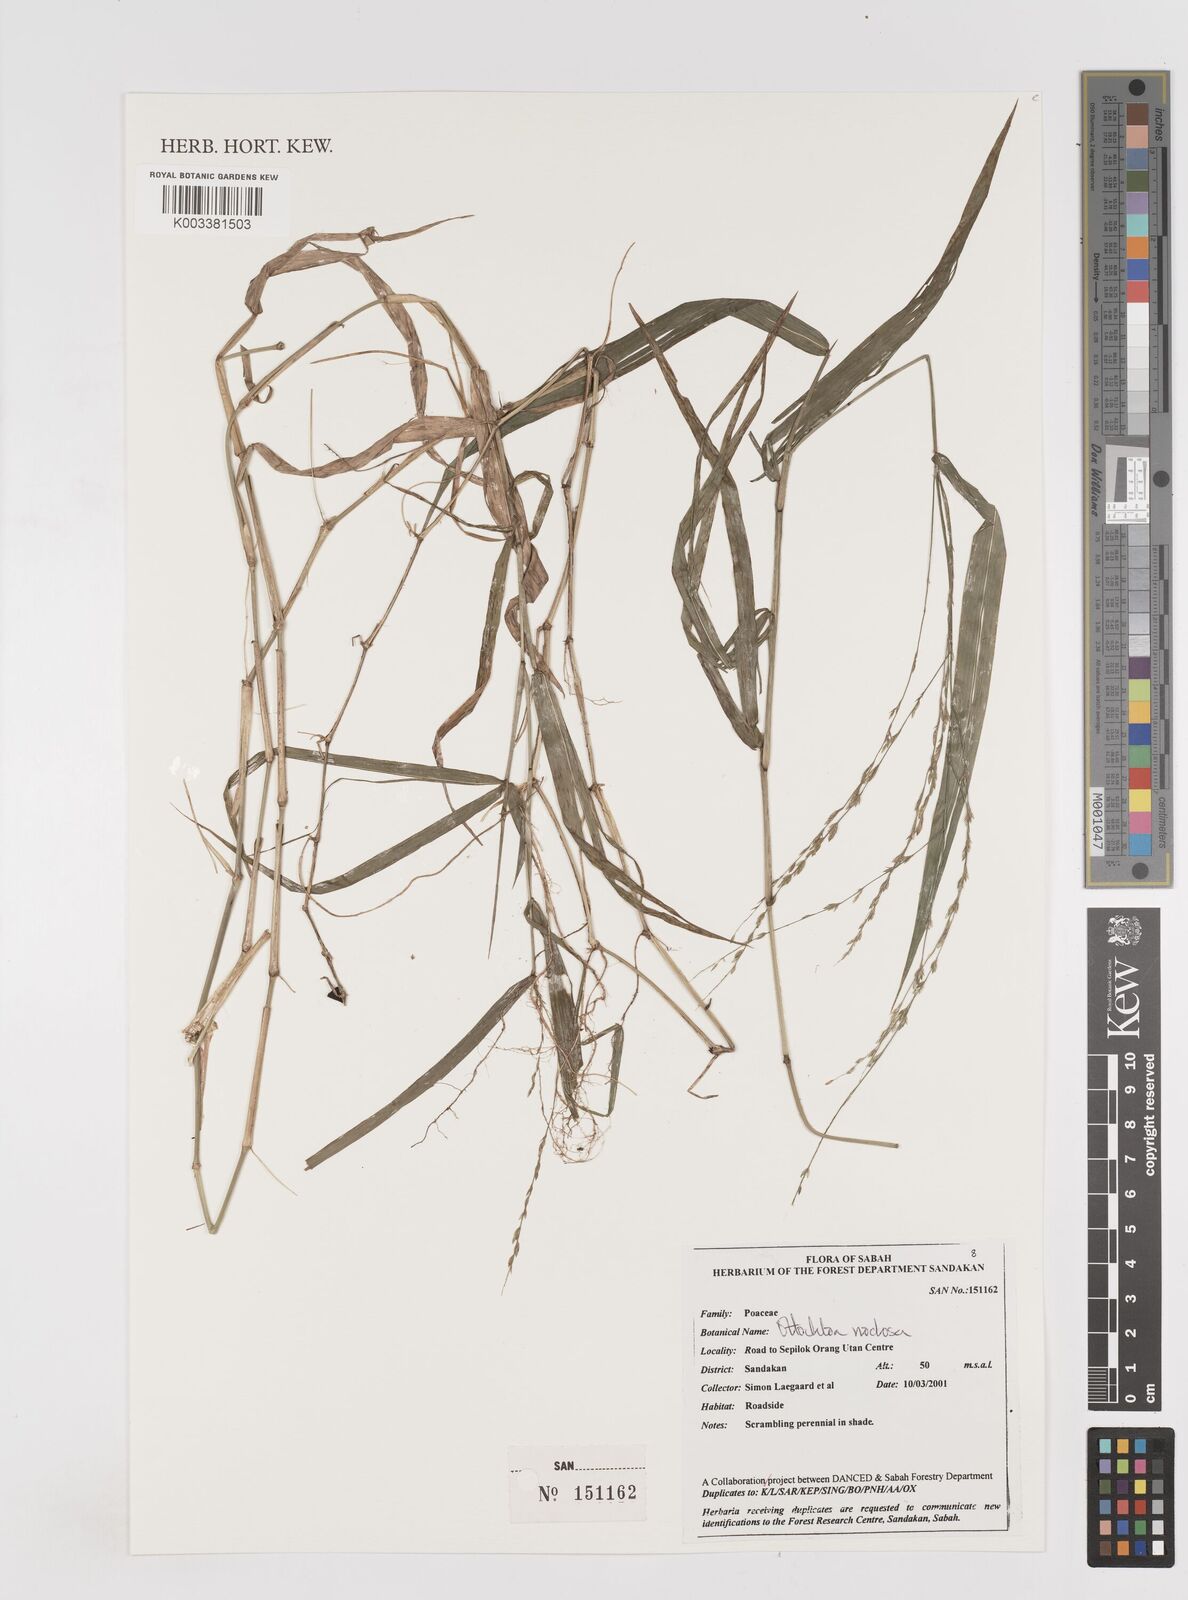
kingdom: Plantae
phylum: Tracheophyta
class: Liliopsida
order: Poales
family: Poaceae
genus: Ottochloa
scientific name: Ottochloa nodosa
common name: Slender-panic grass
